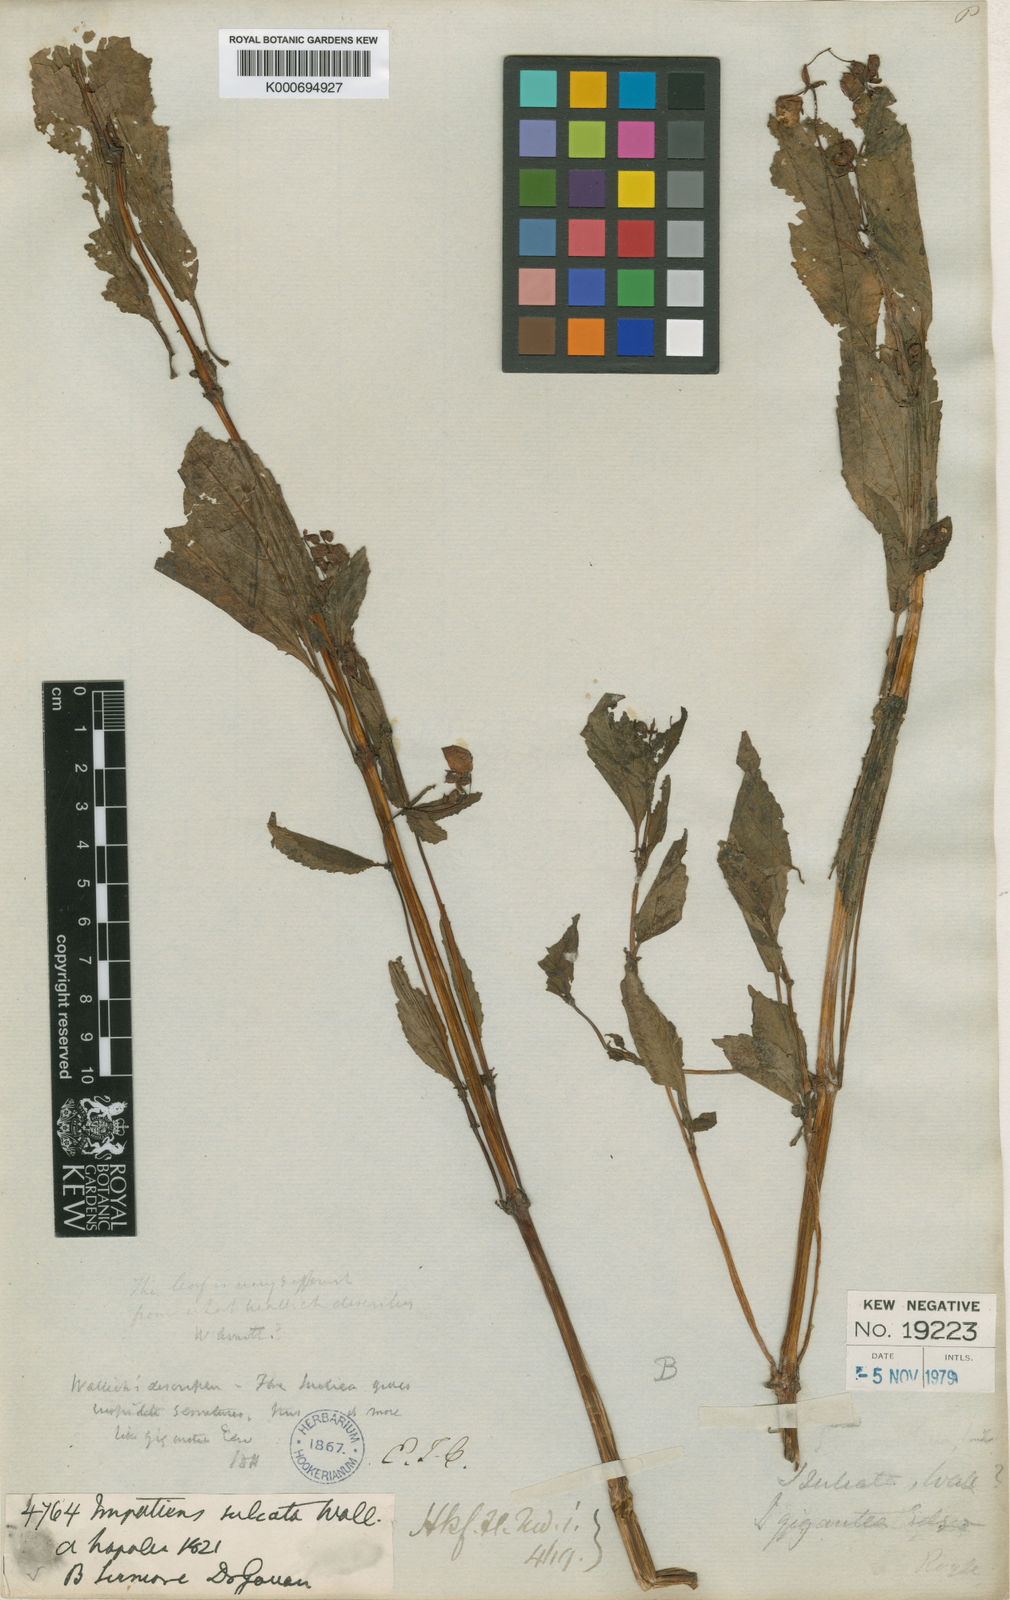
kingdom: Plantae
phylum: Tracheophyta
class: Magnoliopsida
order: Ericales
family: Balsaminaceae
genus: Impatiens
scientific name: Impatiens sulcata
